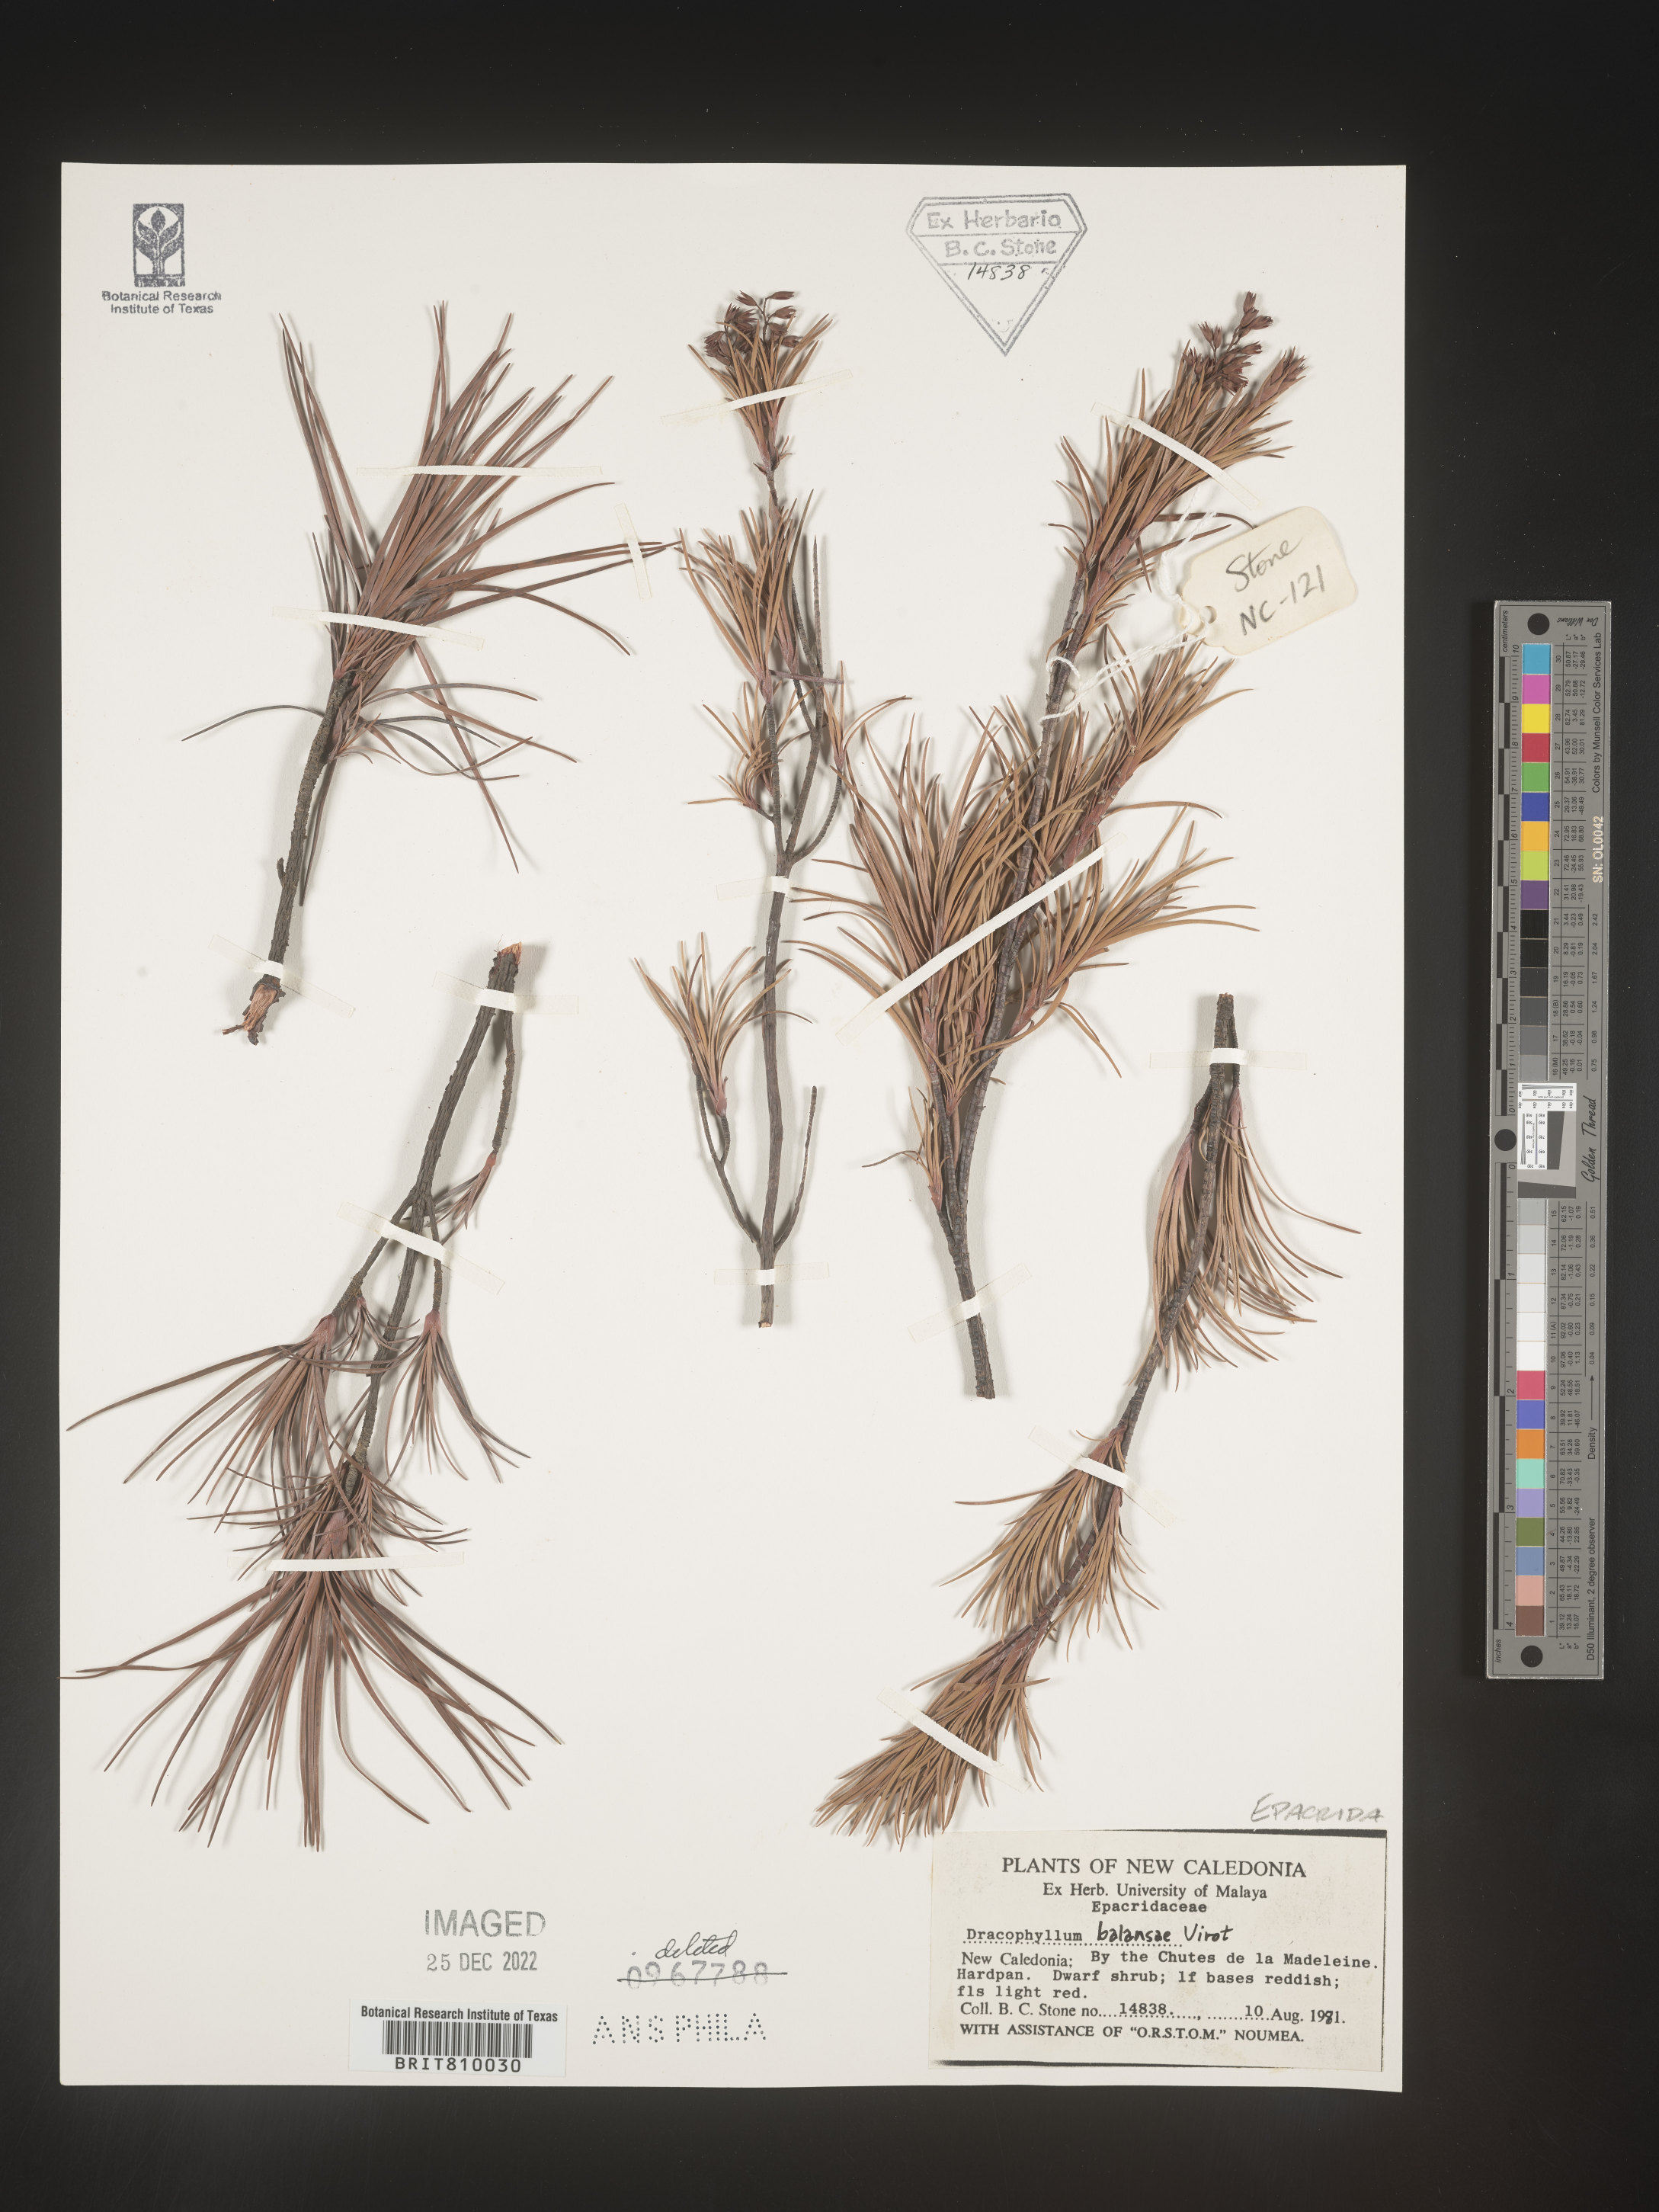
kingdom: Plantae
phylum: Tracheophyta
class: Magnoliopsida
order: Ericales
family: Ericaceae
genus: Dracophyllum
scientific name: Dracophyllum
